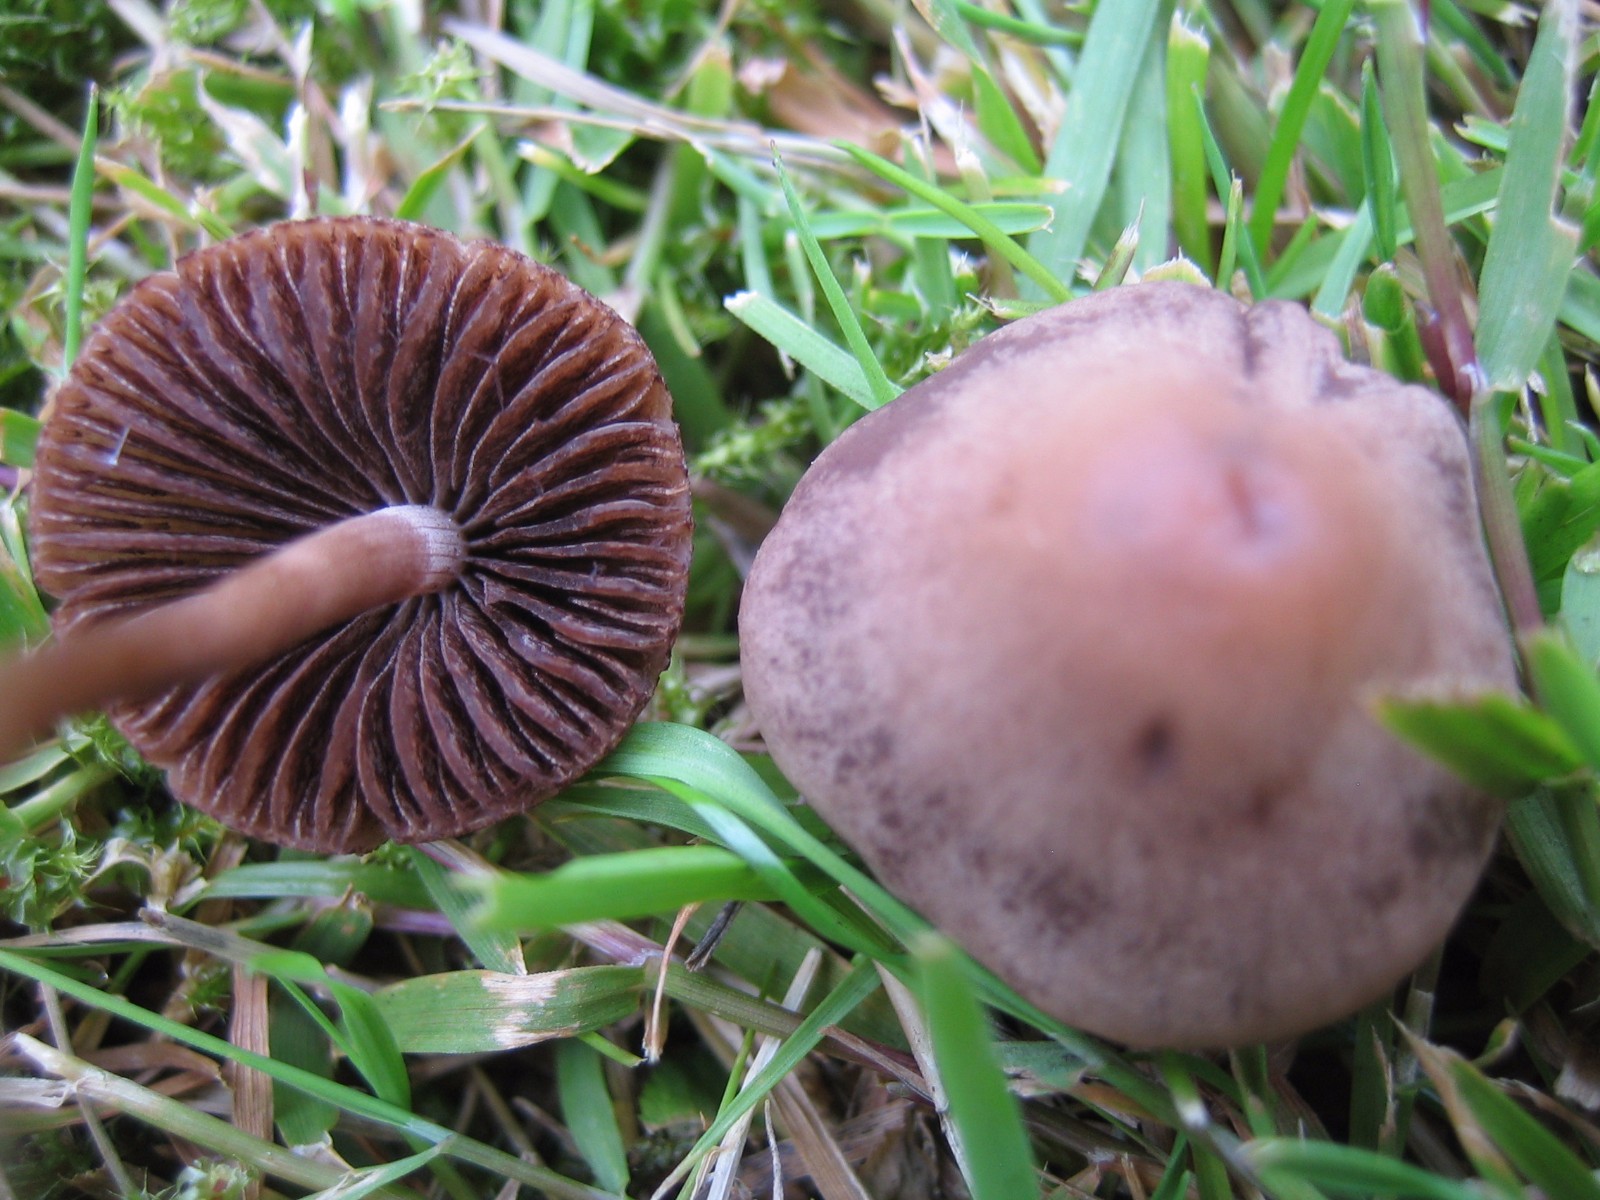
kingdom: Fungi
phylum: Basidiomycota
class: Agaricomycetes
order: Agaricales
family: Bolbitiaceae
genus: Panaeolina
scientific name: Panaeolina foenisecii
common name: høslætsvamp
